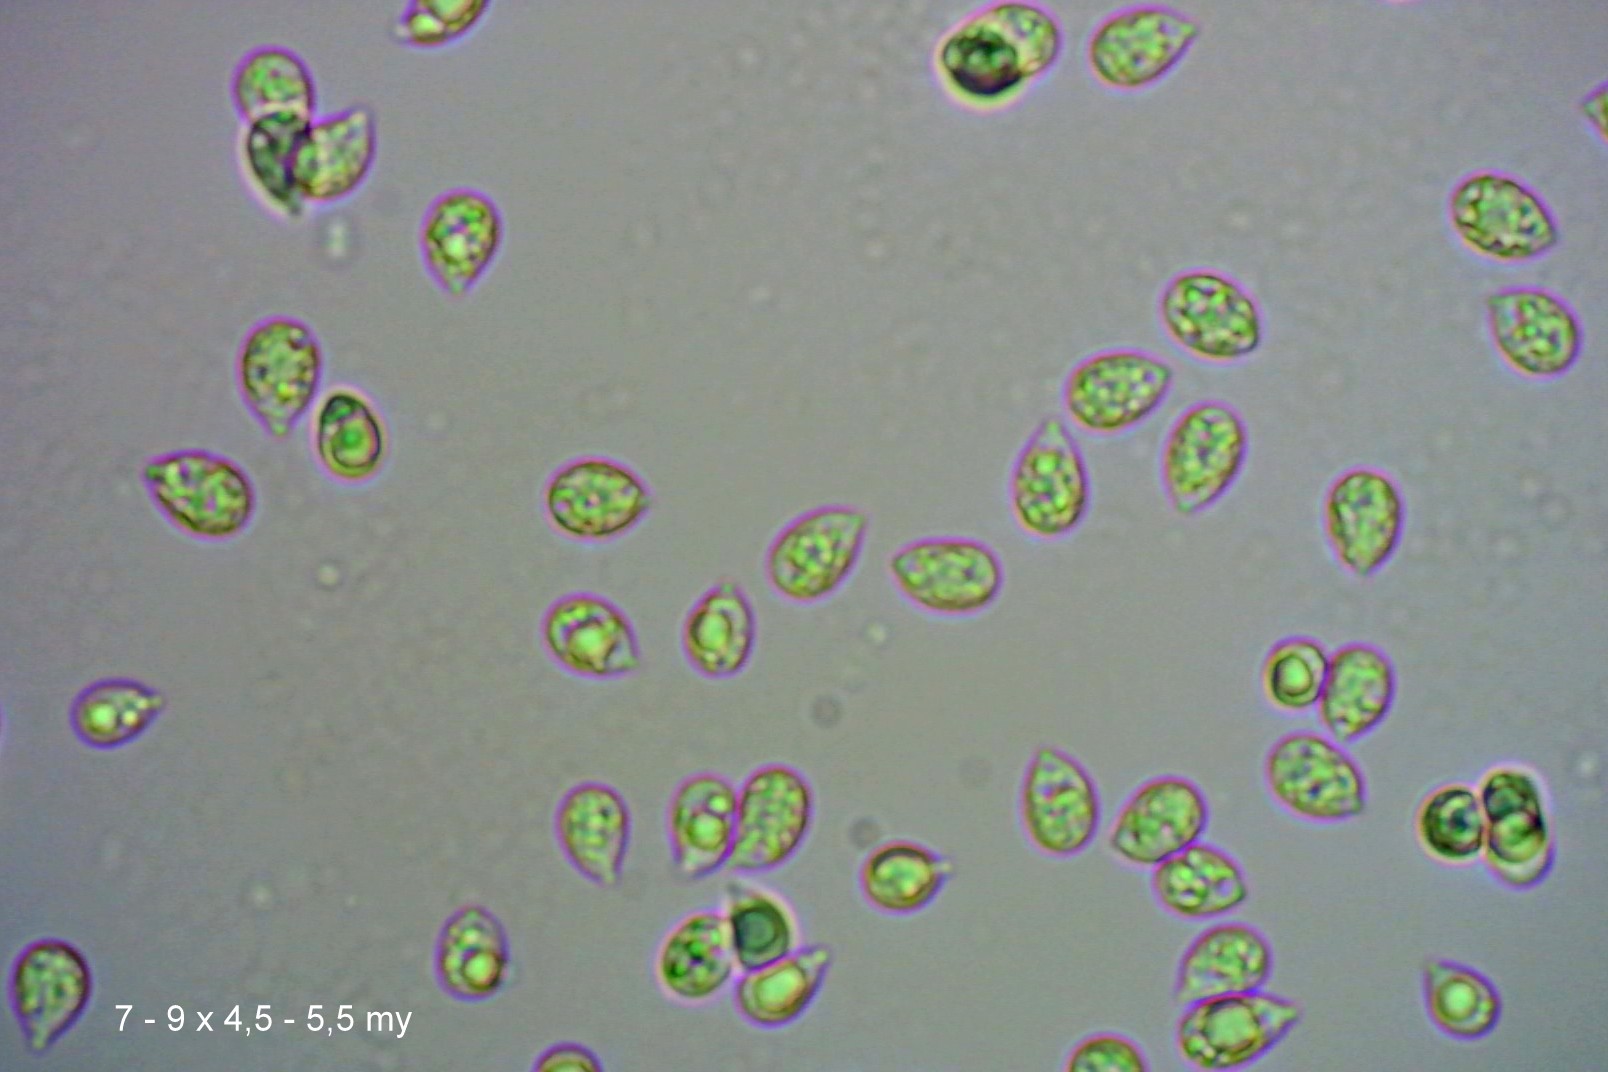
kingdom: Fungi
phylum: Basidiomycota
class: Agaricomycetes
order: Agaricales
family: Hygrophoraceae
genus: Cuphophyllus
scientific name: Cuphophyllus colemannianus
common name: rødbrun vokshat
